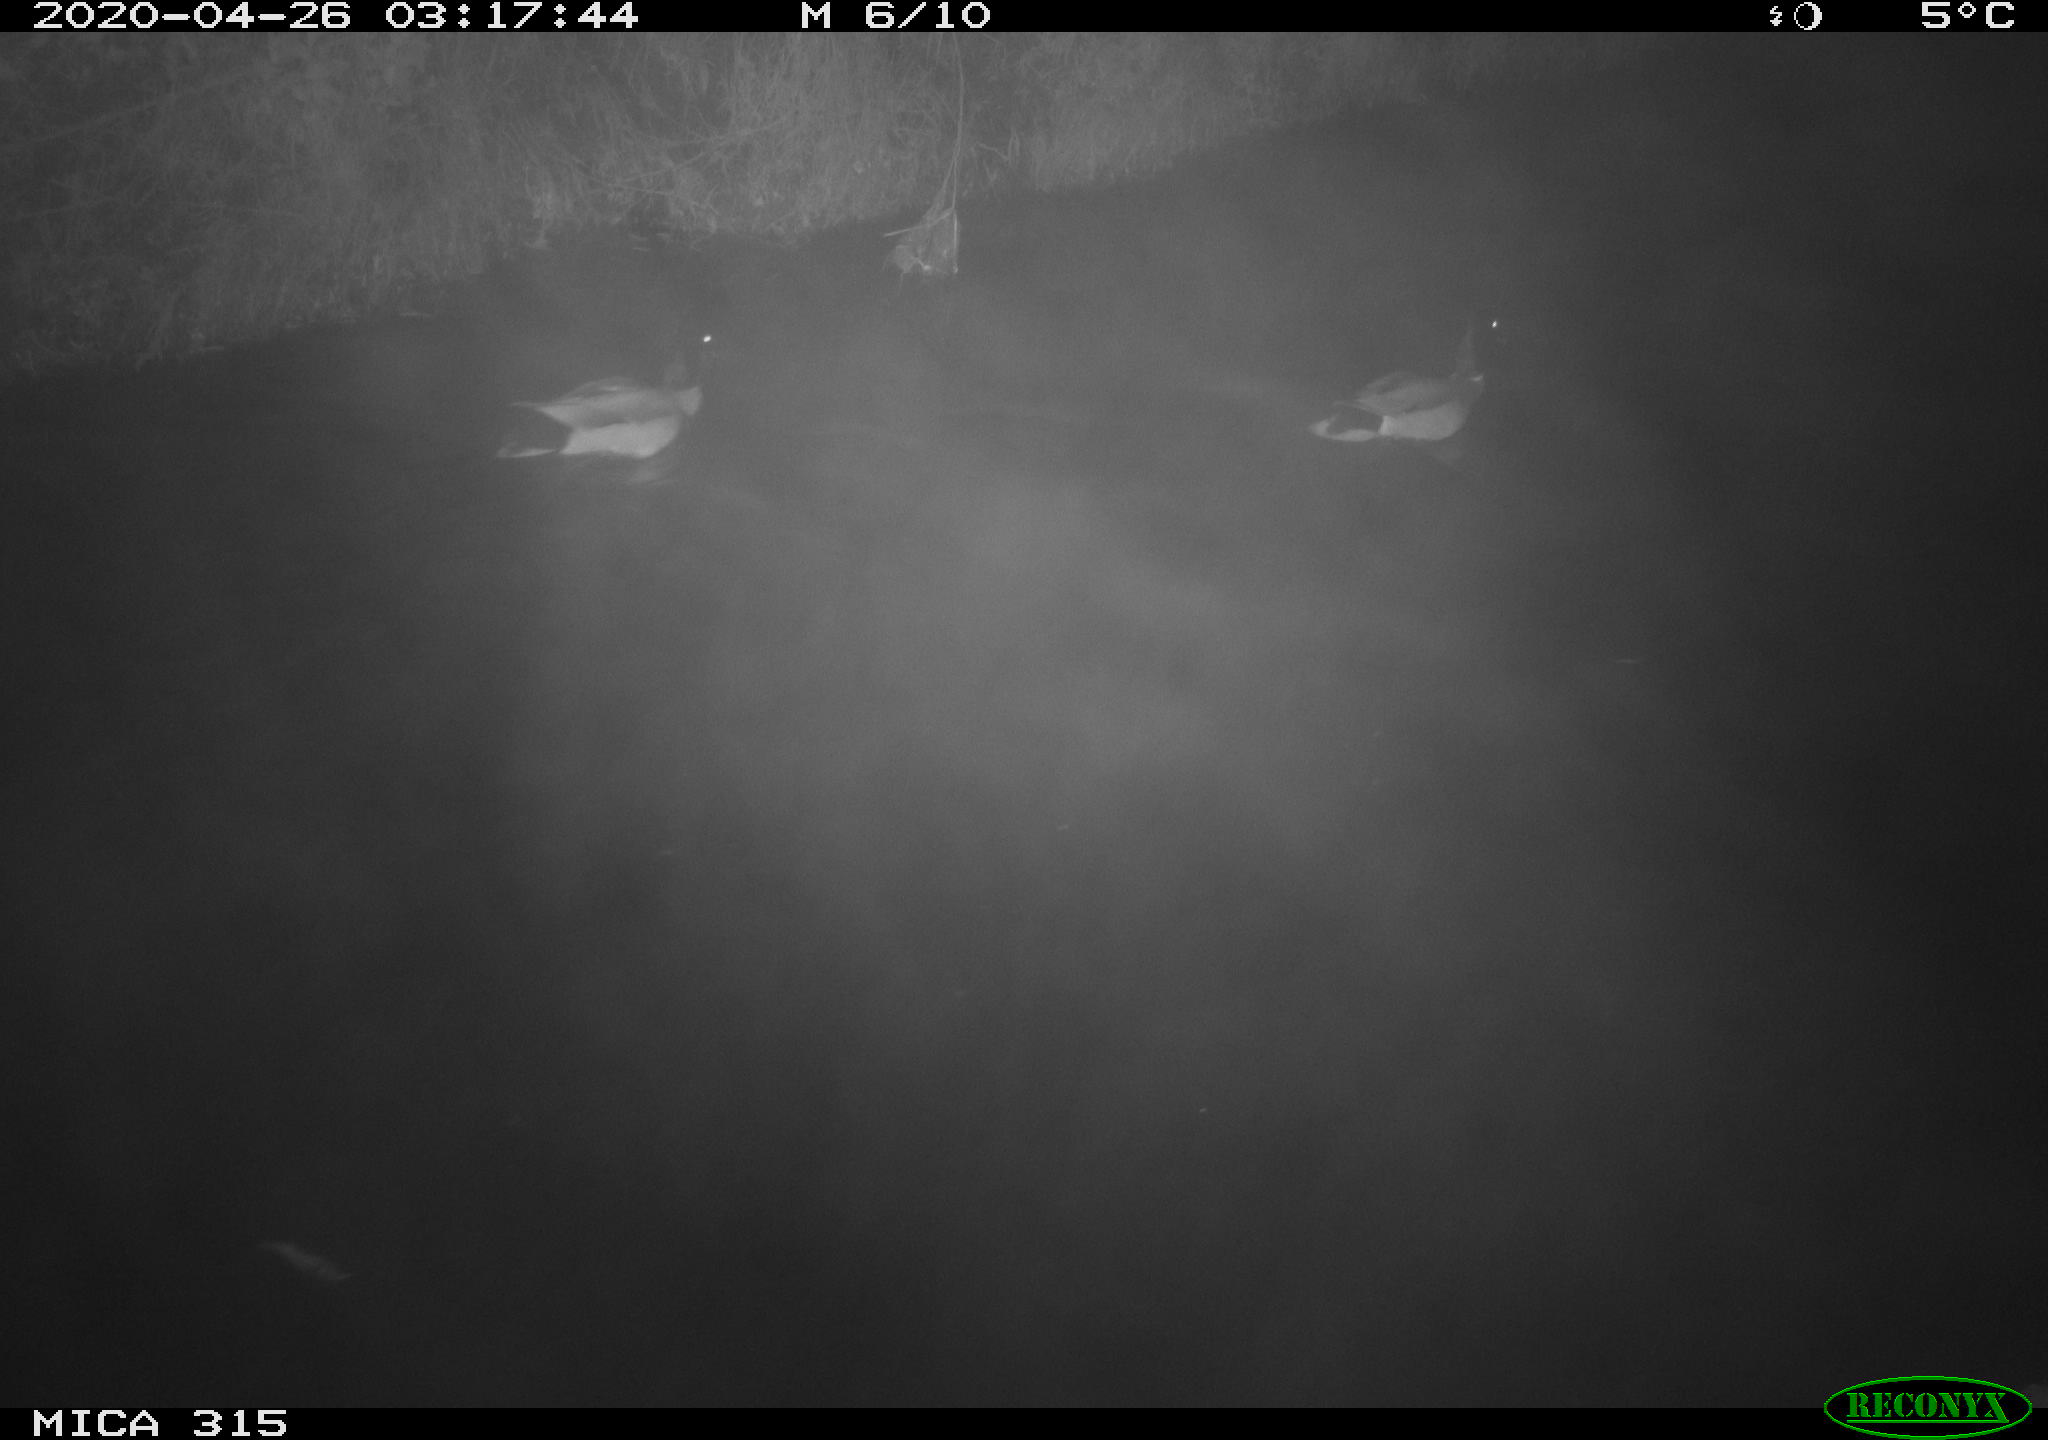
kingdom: Animalia
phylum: Chordata
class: Aves
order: Anseriformes
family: Anatidae
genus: Anas
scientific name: Anas platyrhynchos
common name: Mallard
